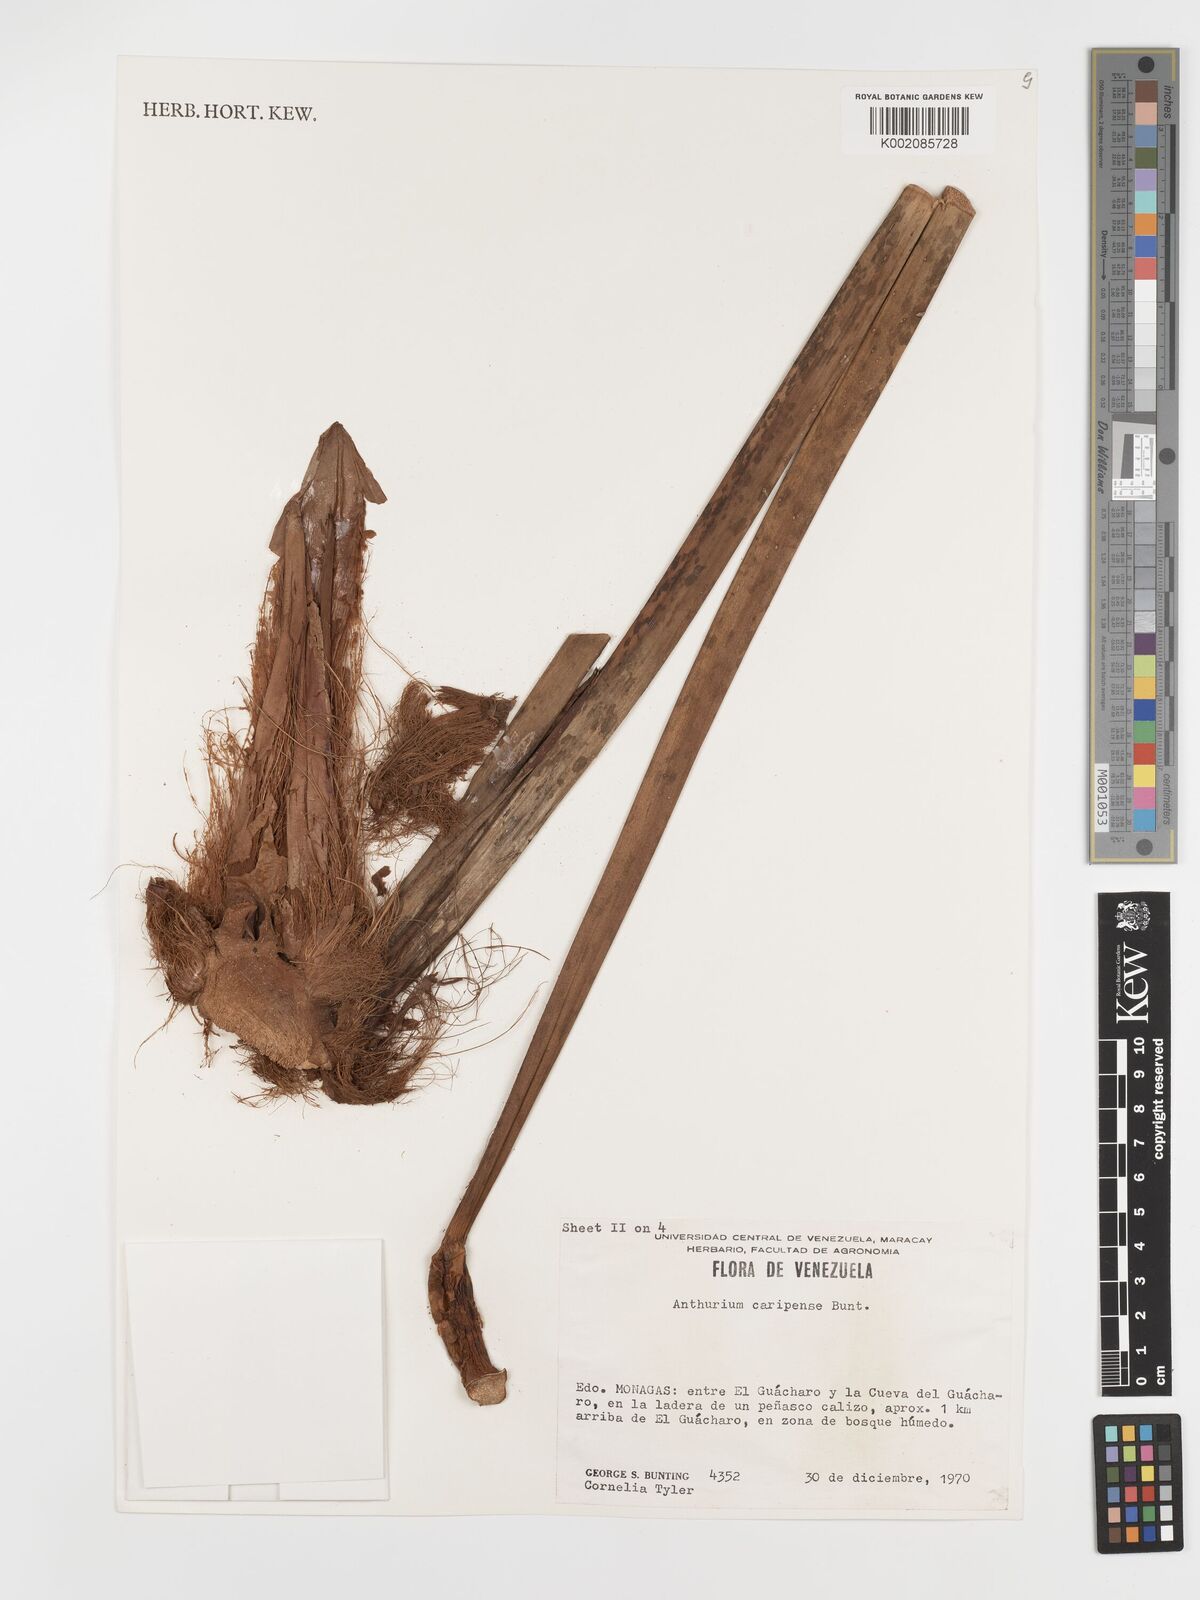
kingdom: Plantae
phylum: Tracheophyta
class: Liliopsida
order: Alismatales
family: Araceae
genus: Anthurium
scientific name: Anthurium caripense
